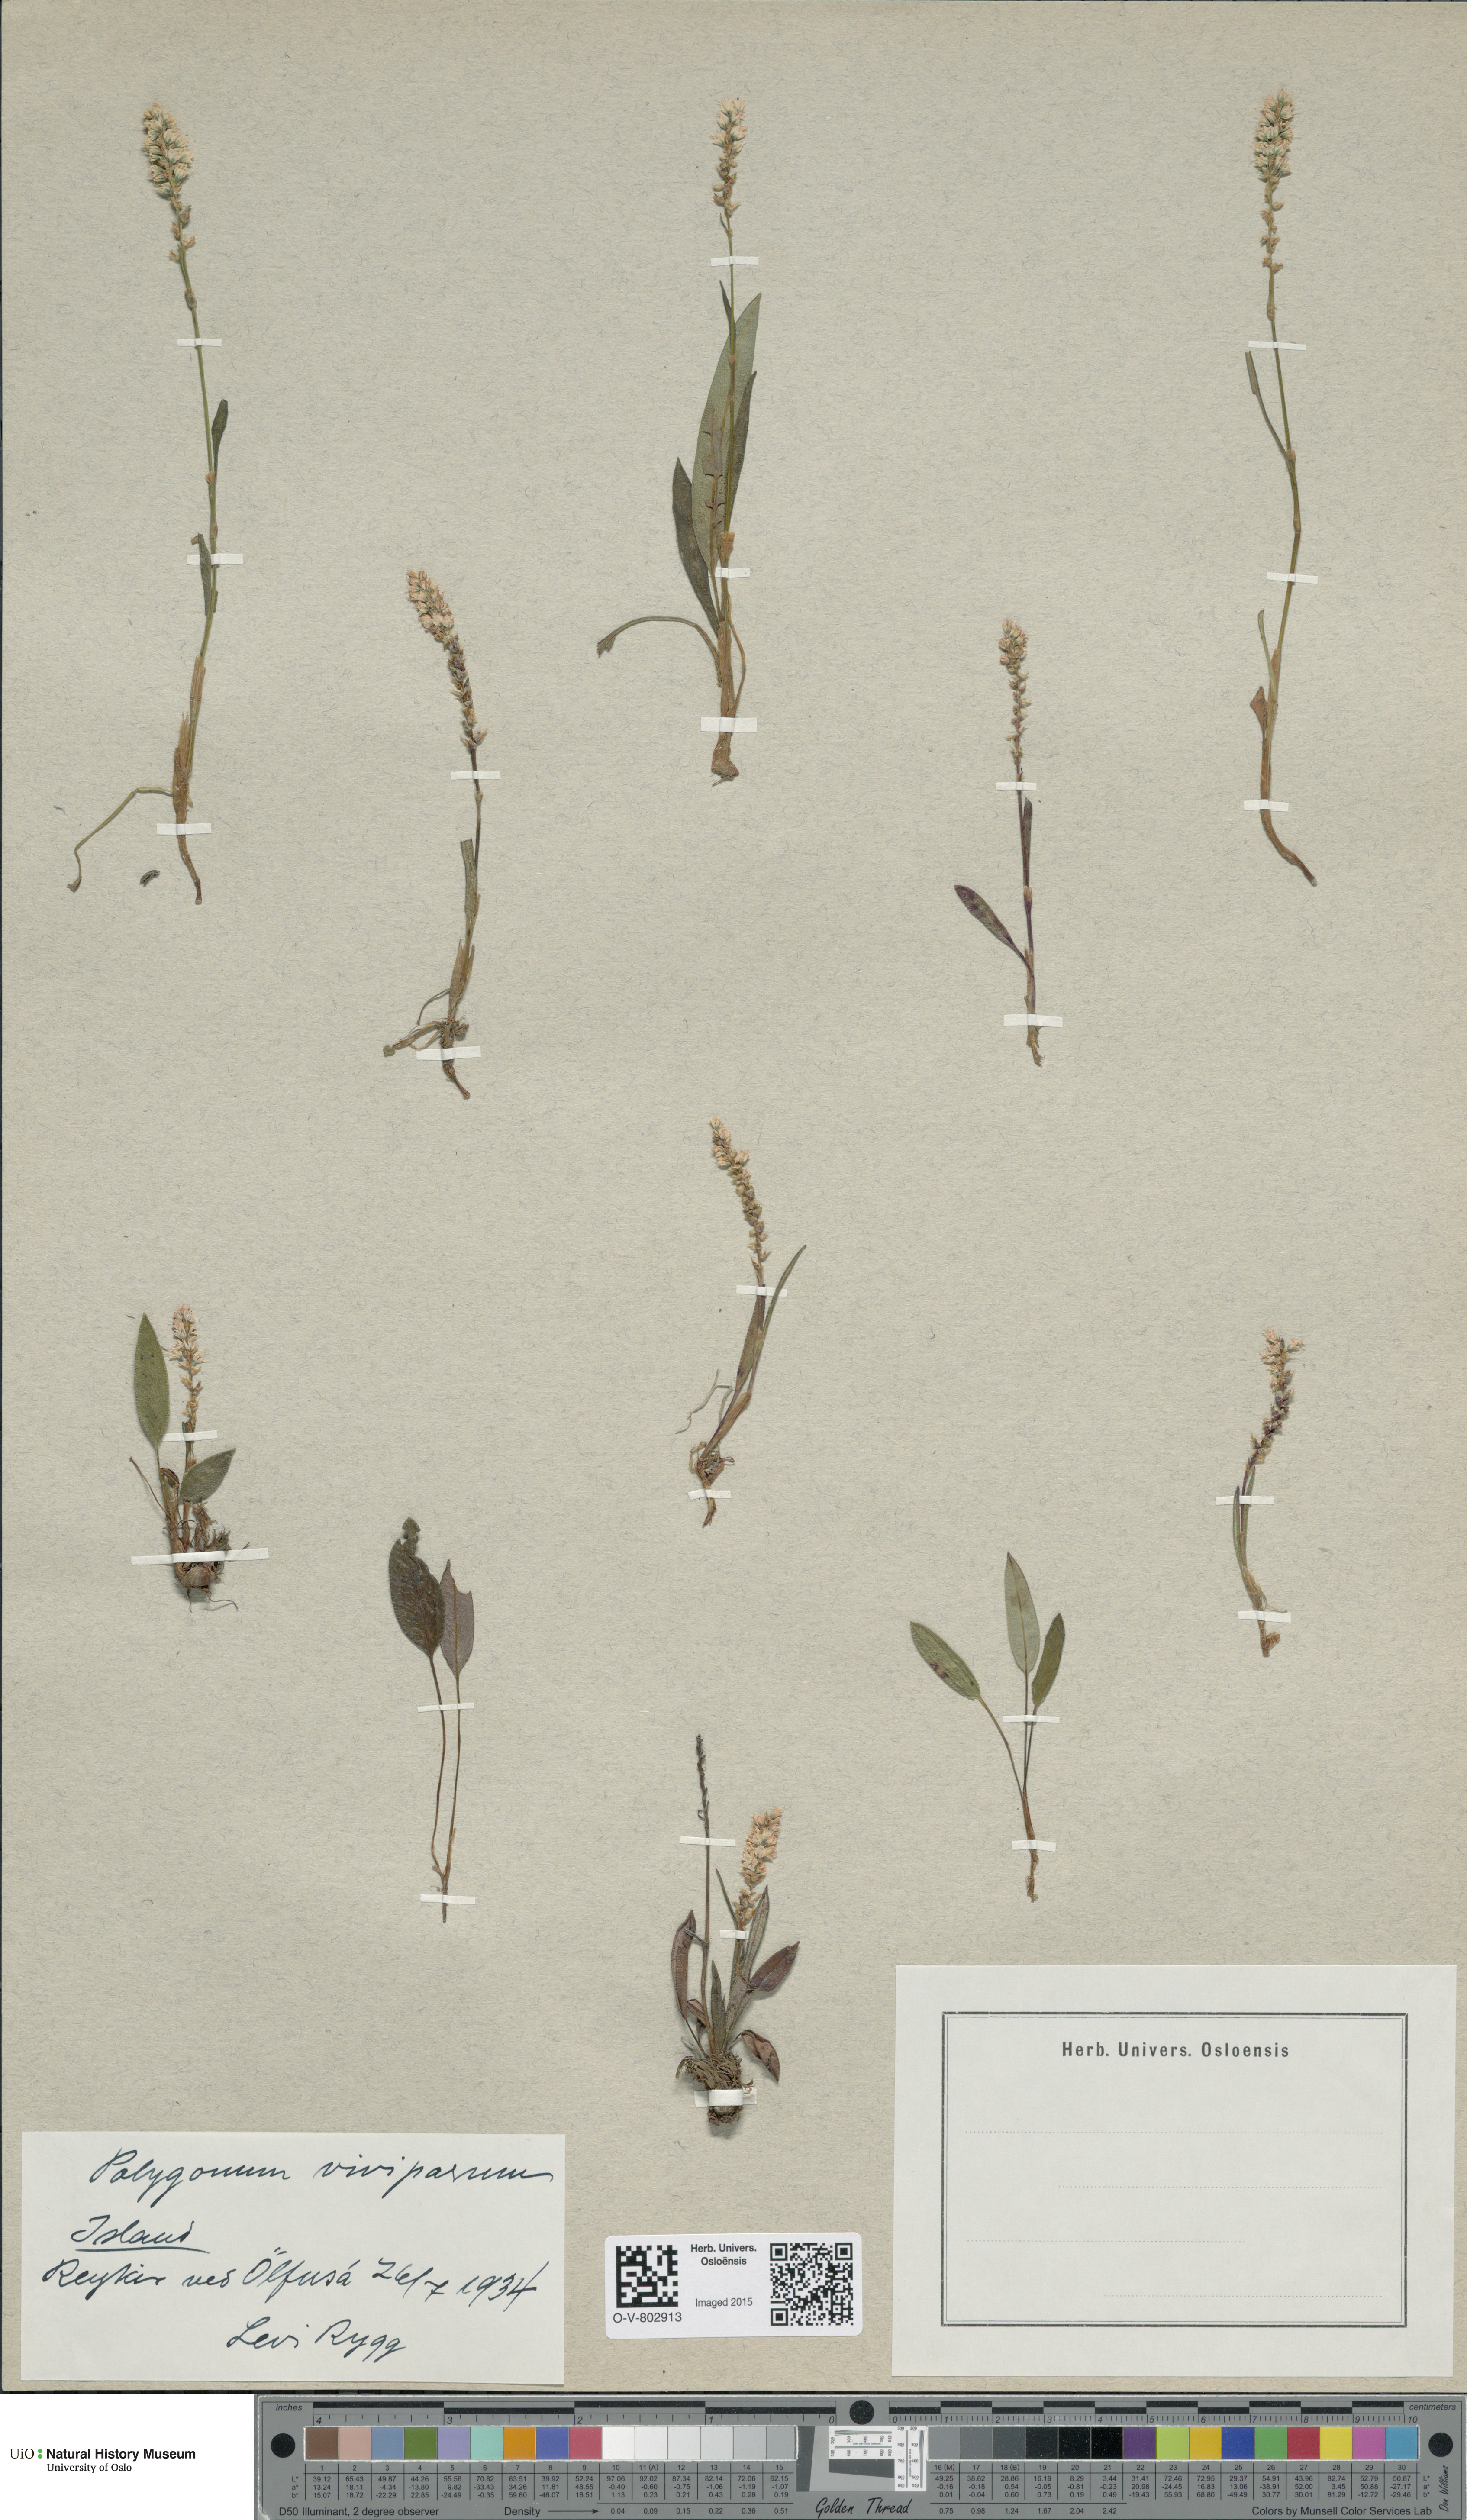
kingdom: Plantae
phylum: Tracheophyta
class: Magnoliopsida
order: Caryophyllales
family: Polygonaceae
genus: Bistorta
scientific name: Bistorta vivipara
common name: Alpine bistort
